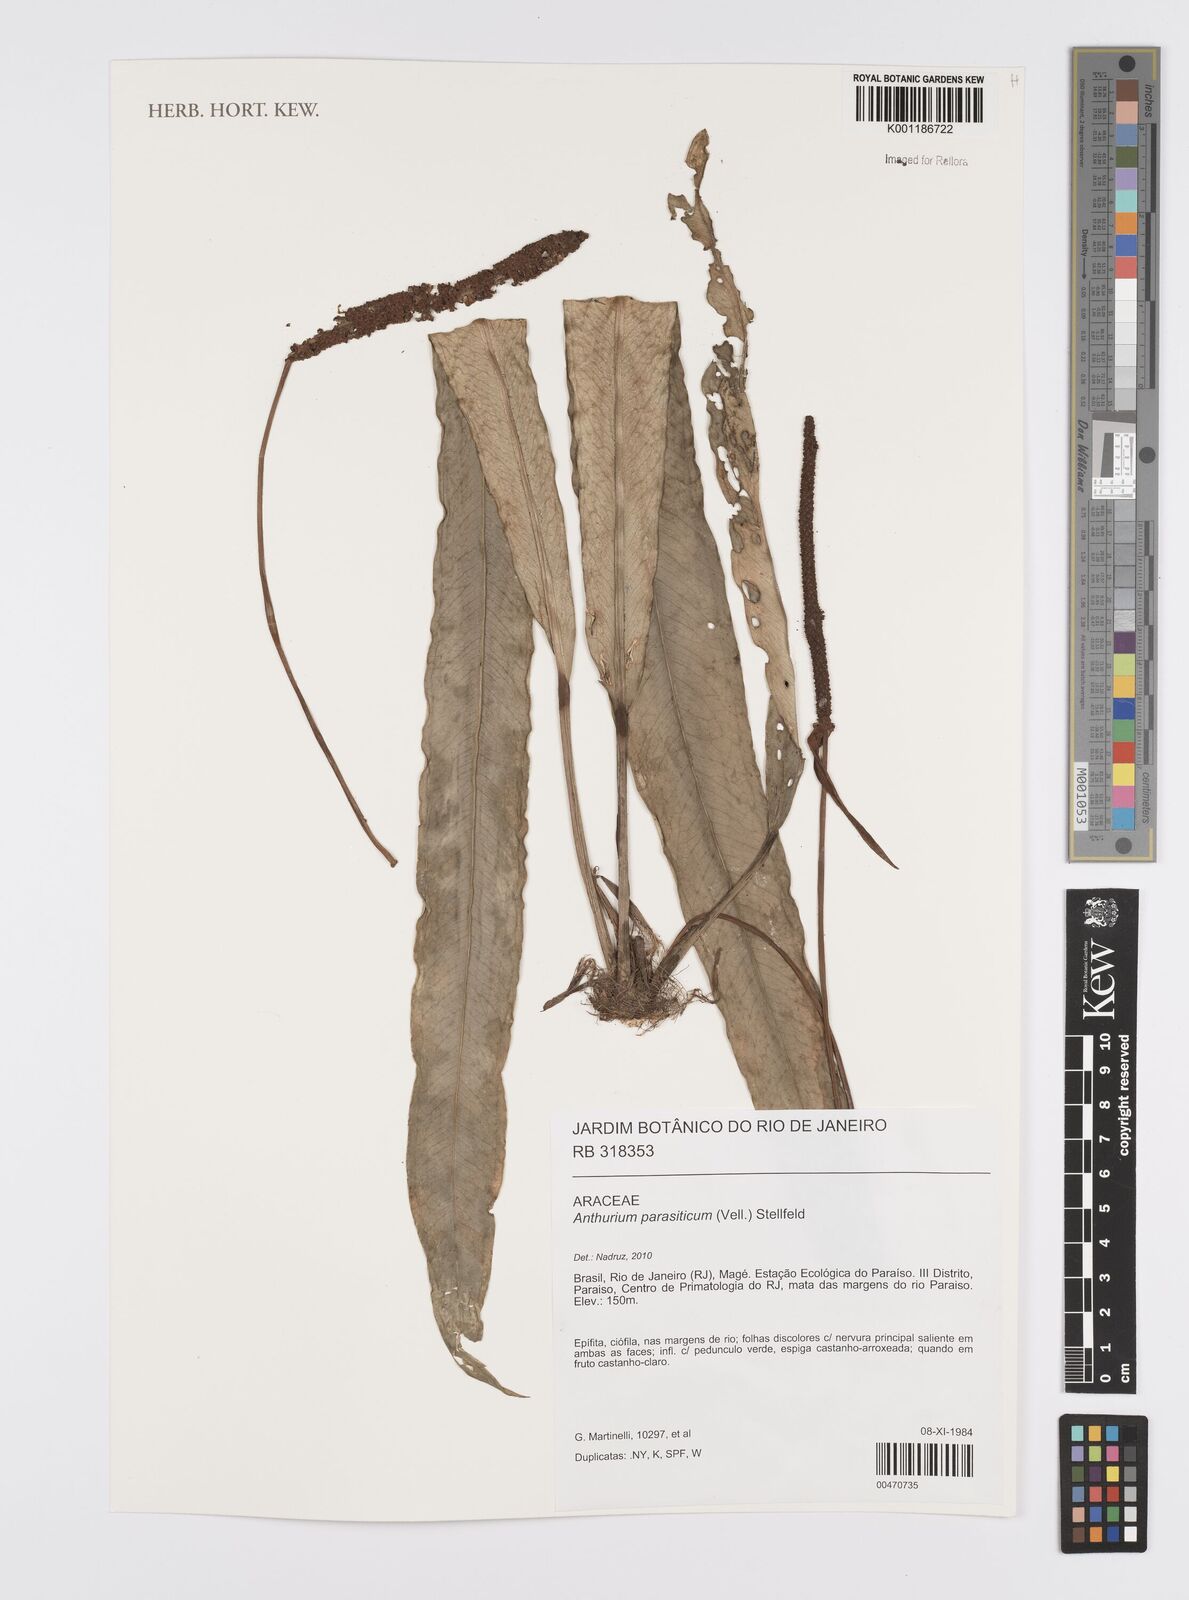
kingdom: Plantae
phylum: Tracheophyta
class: Liliopsida
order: Alismatales
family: Araceae
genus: Anthurium
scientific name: Anthurium parasiticum
